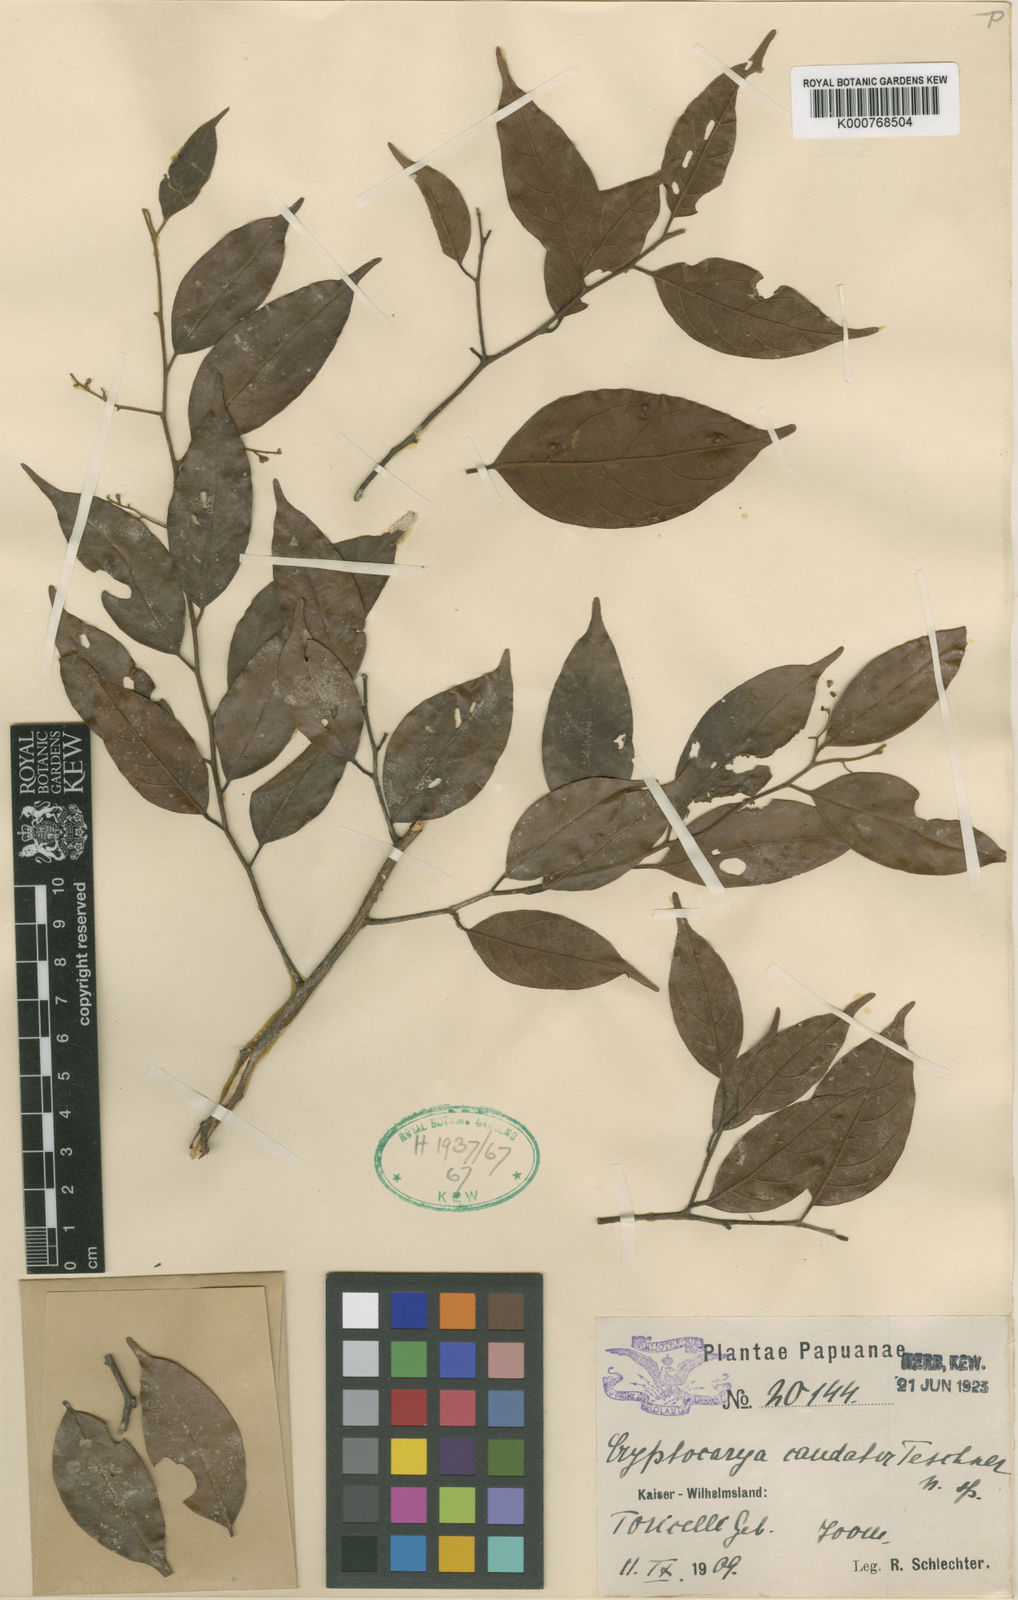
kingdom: Plantae
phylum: Tracheophyta
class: Magnoliopsida
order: Laurales
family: Lauraceae
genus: Cryptocarya
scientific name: Cryptocarya bernhardiensis
